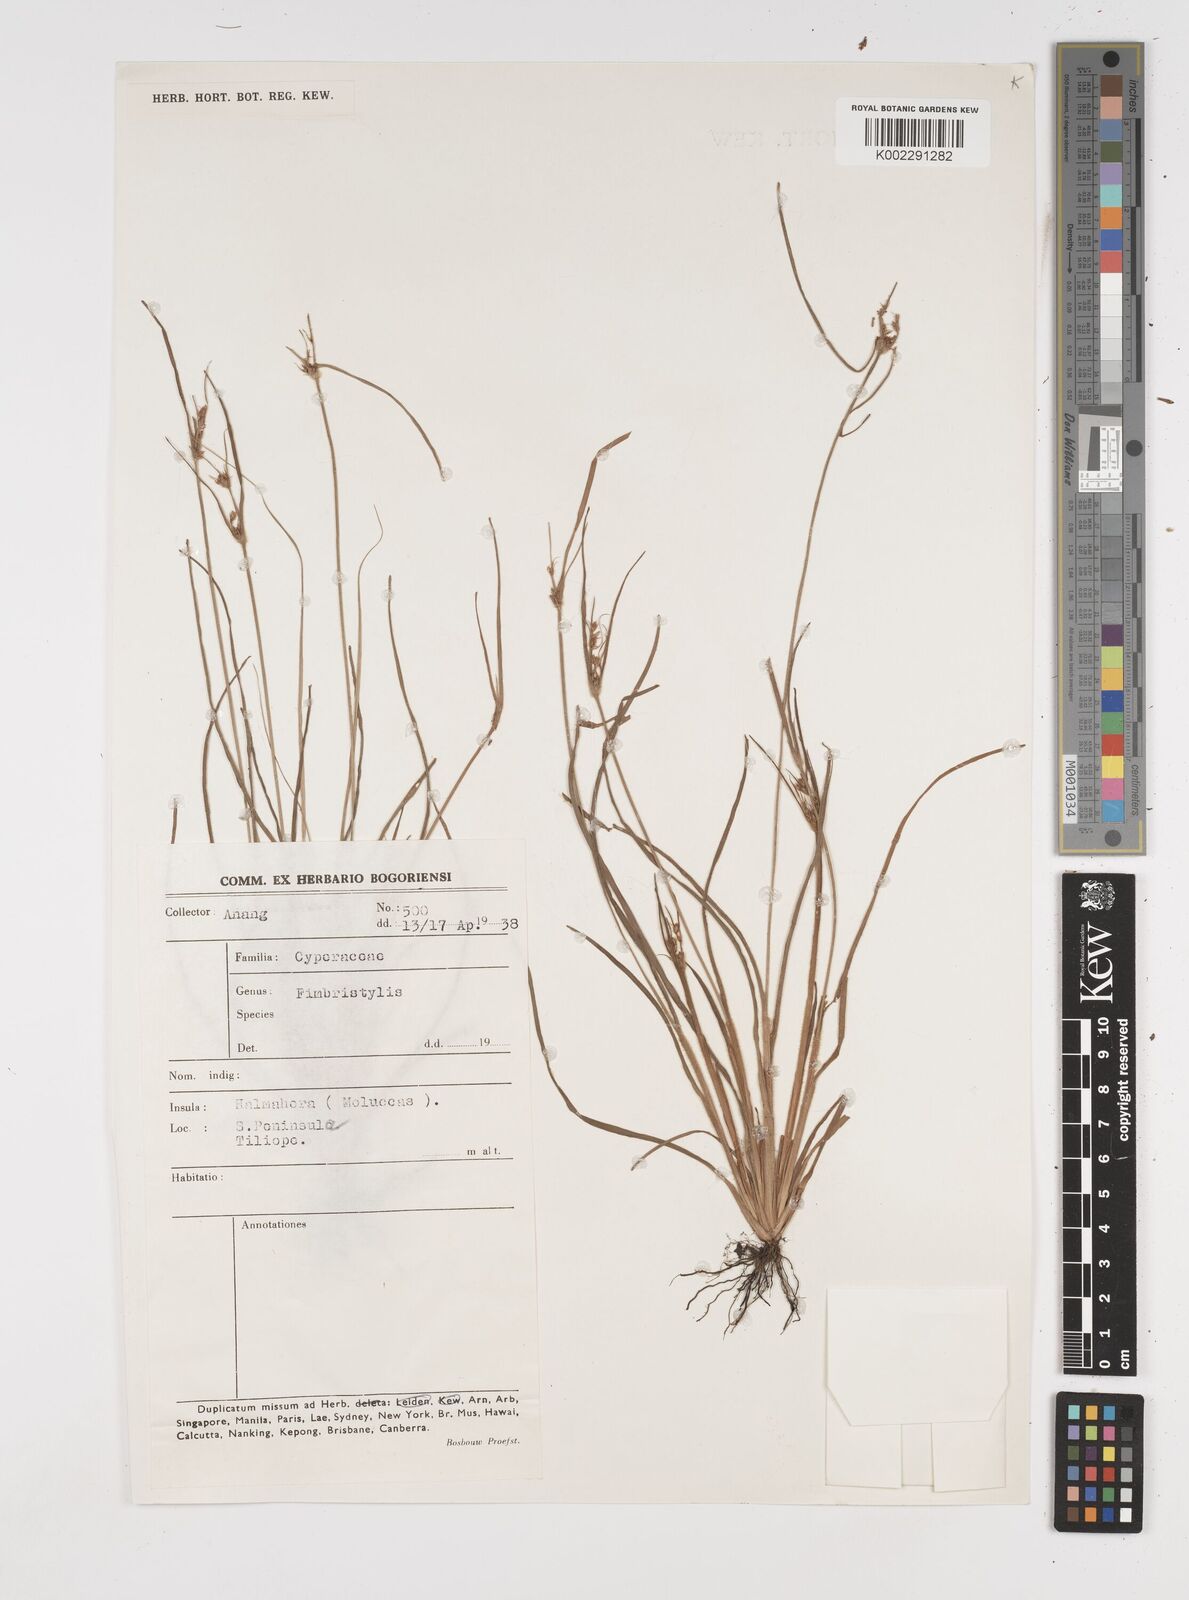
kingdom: Plantae
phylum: Tracheophyta
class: Liliopsida
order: Poales
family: Cyperaceae
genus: Fimbristylis
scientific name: Fimbristylis
